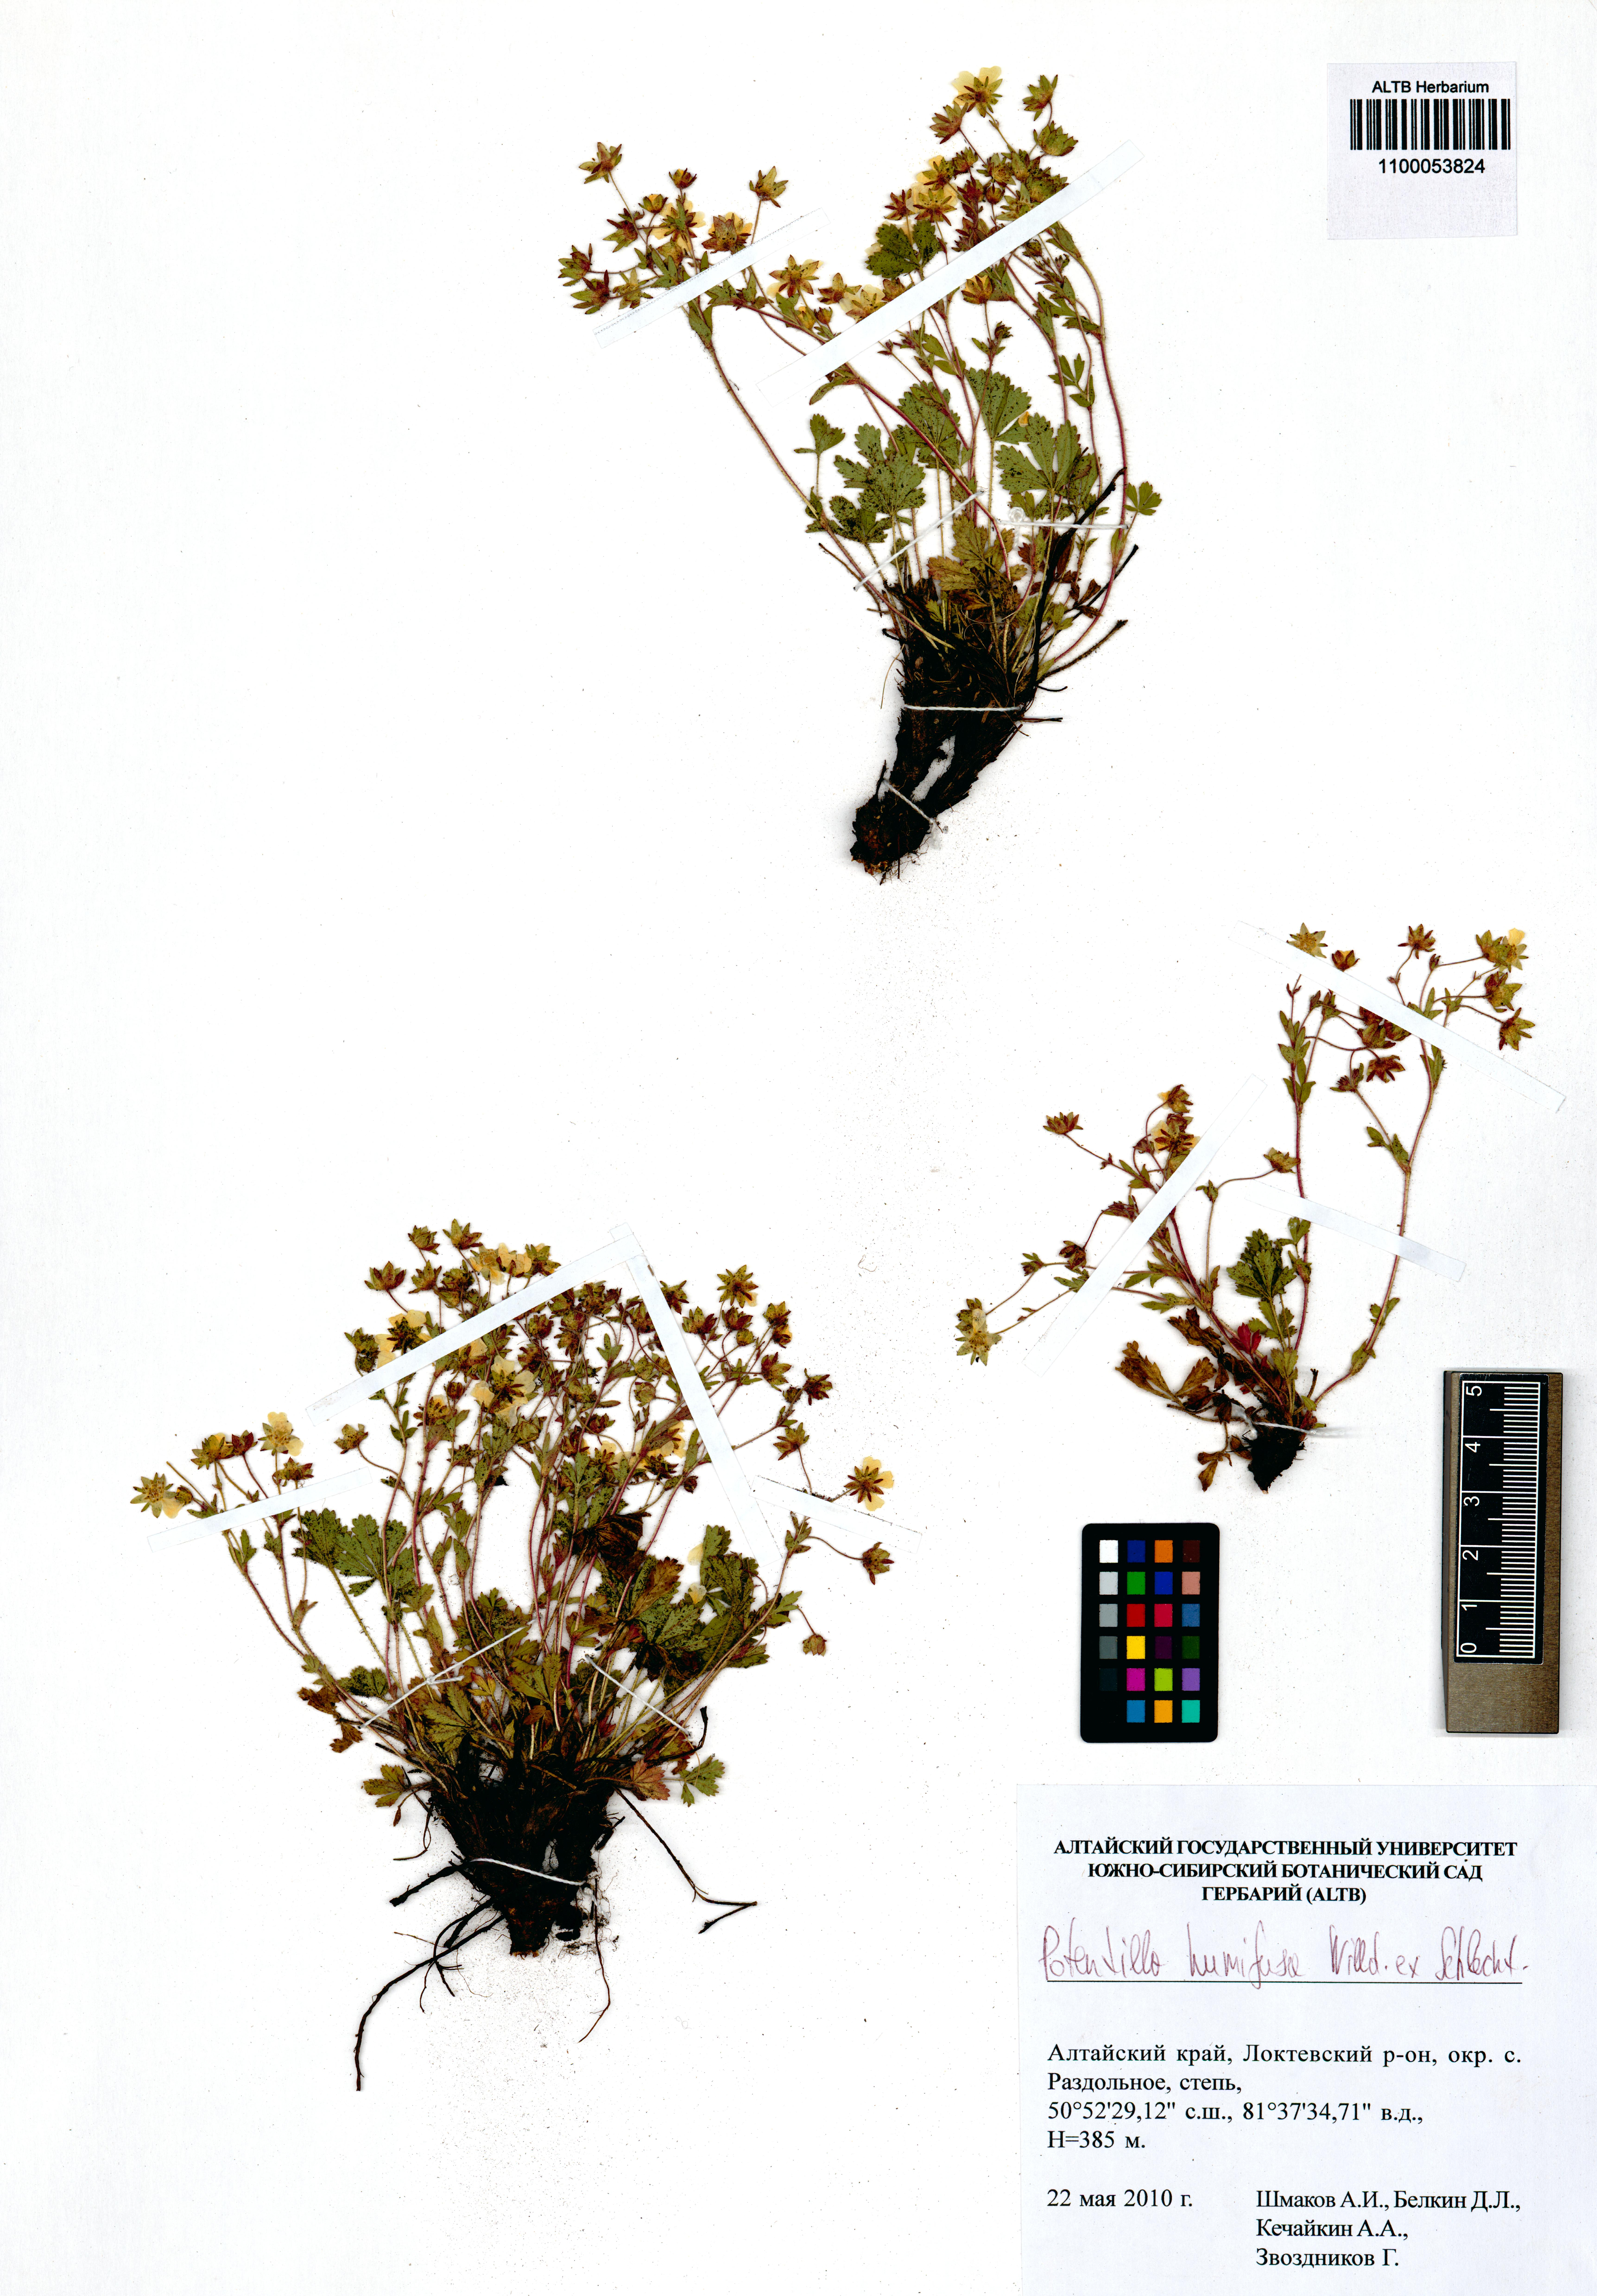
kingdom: Plantae
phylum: Tracheophyta
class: Magnoliopsida
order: Rosales
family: Rosaceae
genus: Potentilla
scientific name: Potentilla humifusa
